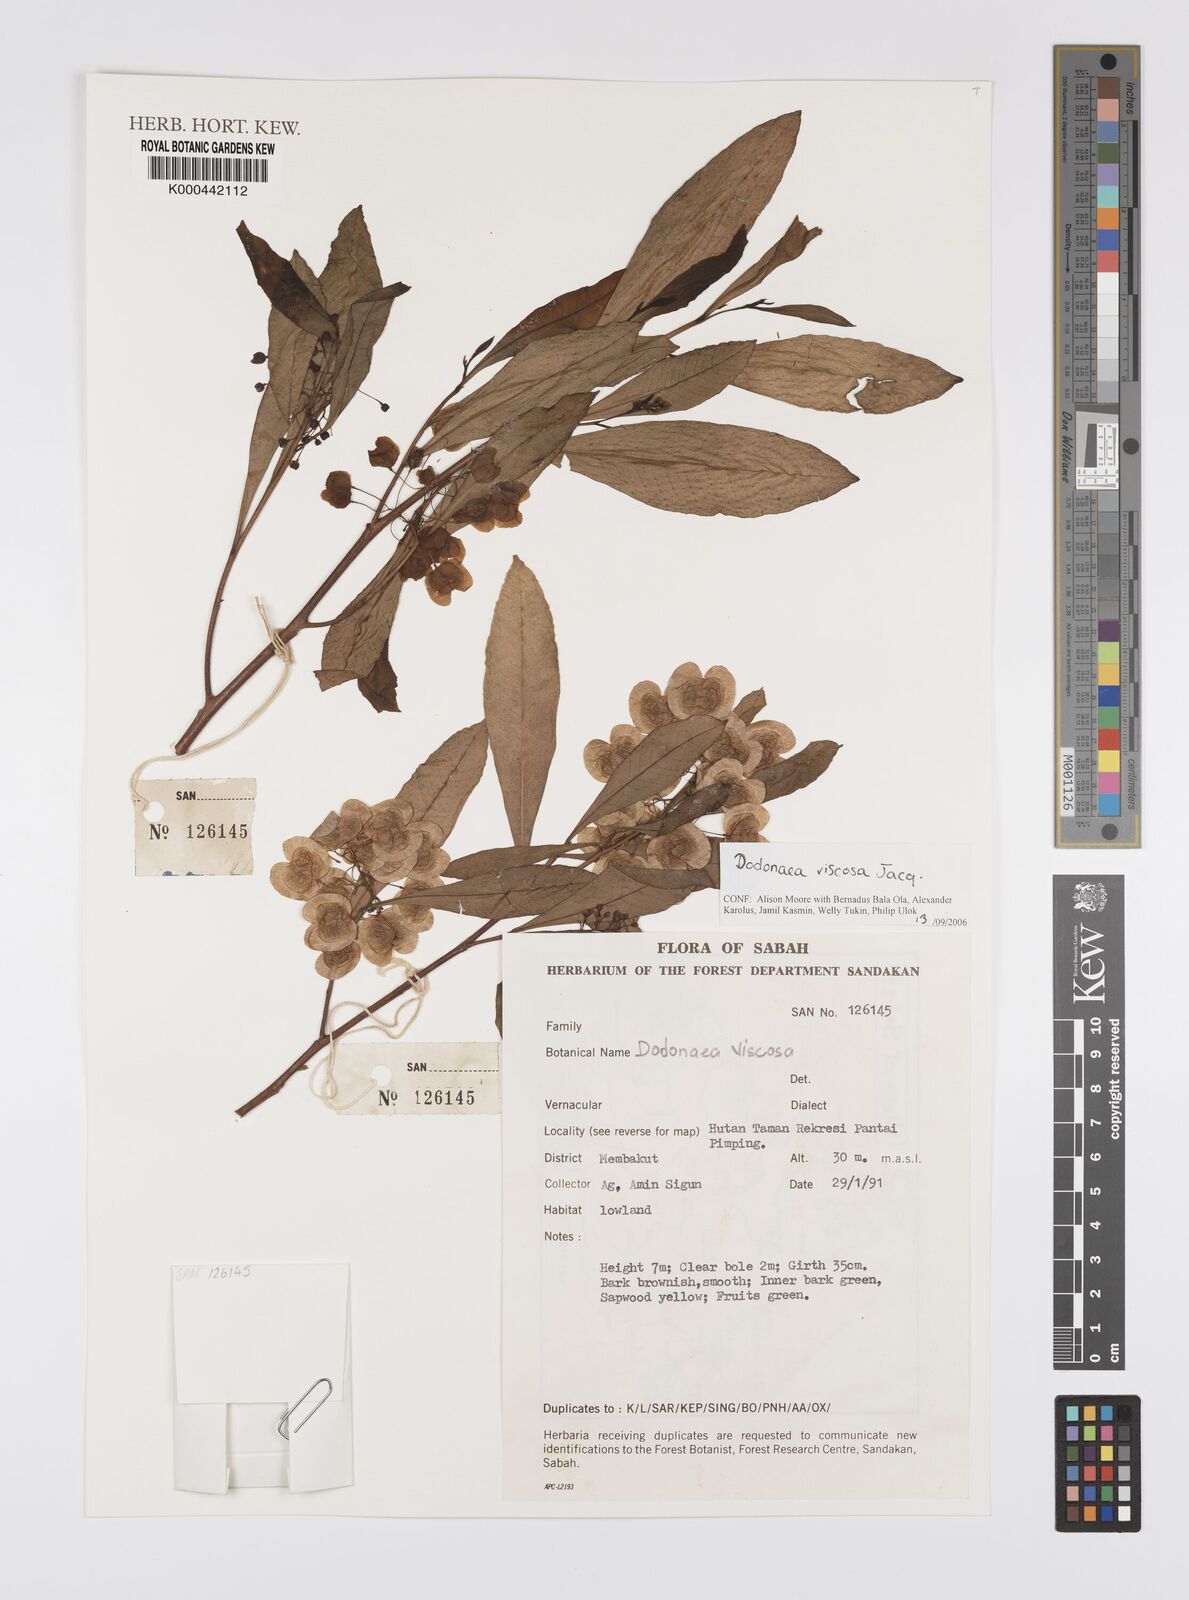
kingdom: Plantae
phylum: Tracheophyta
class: Magnoliopsida
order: Sapindales
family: Sapindaceae
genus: Dodonaea
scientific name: Dodonaea viscosa
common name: Hopbush
